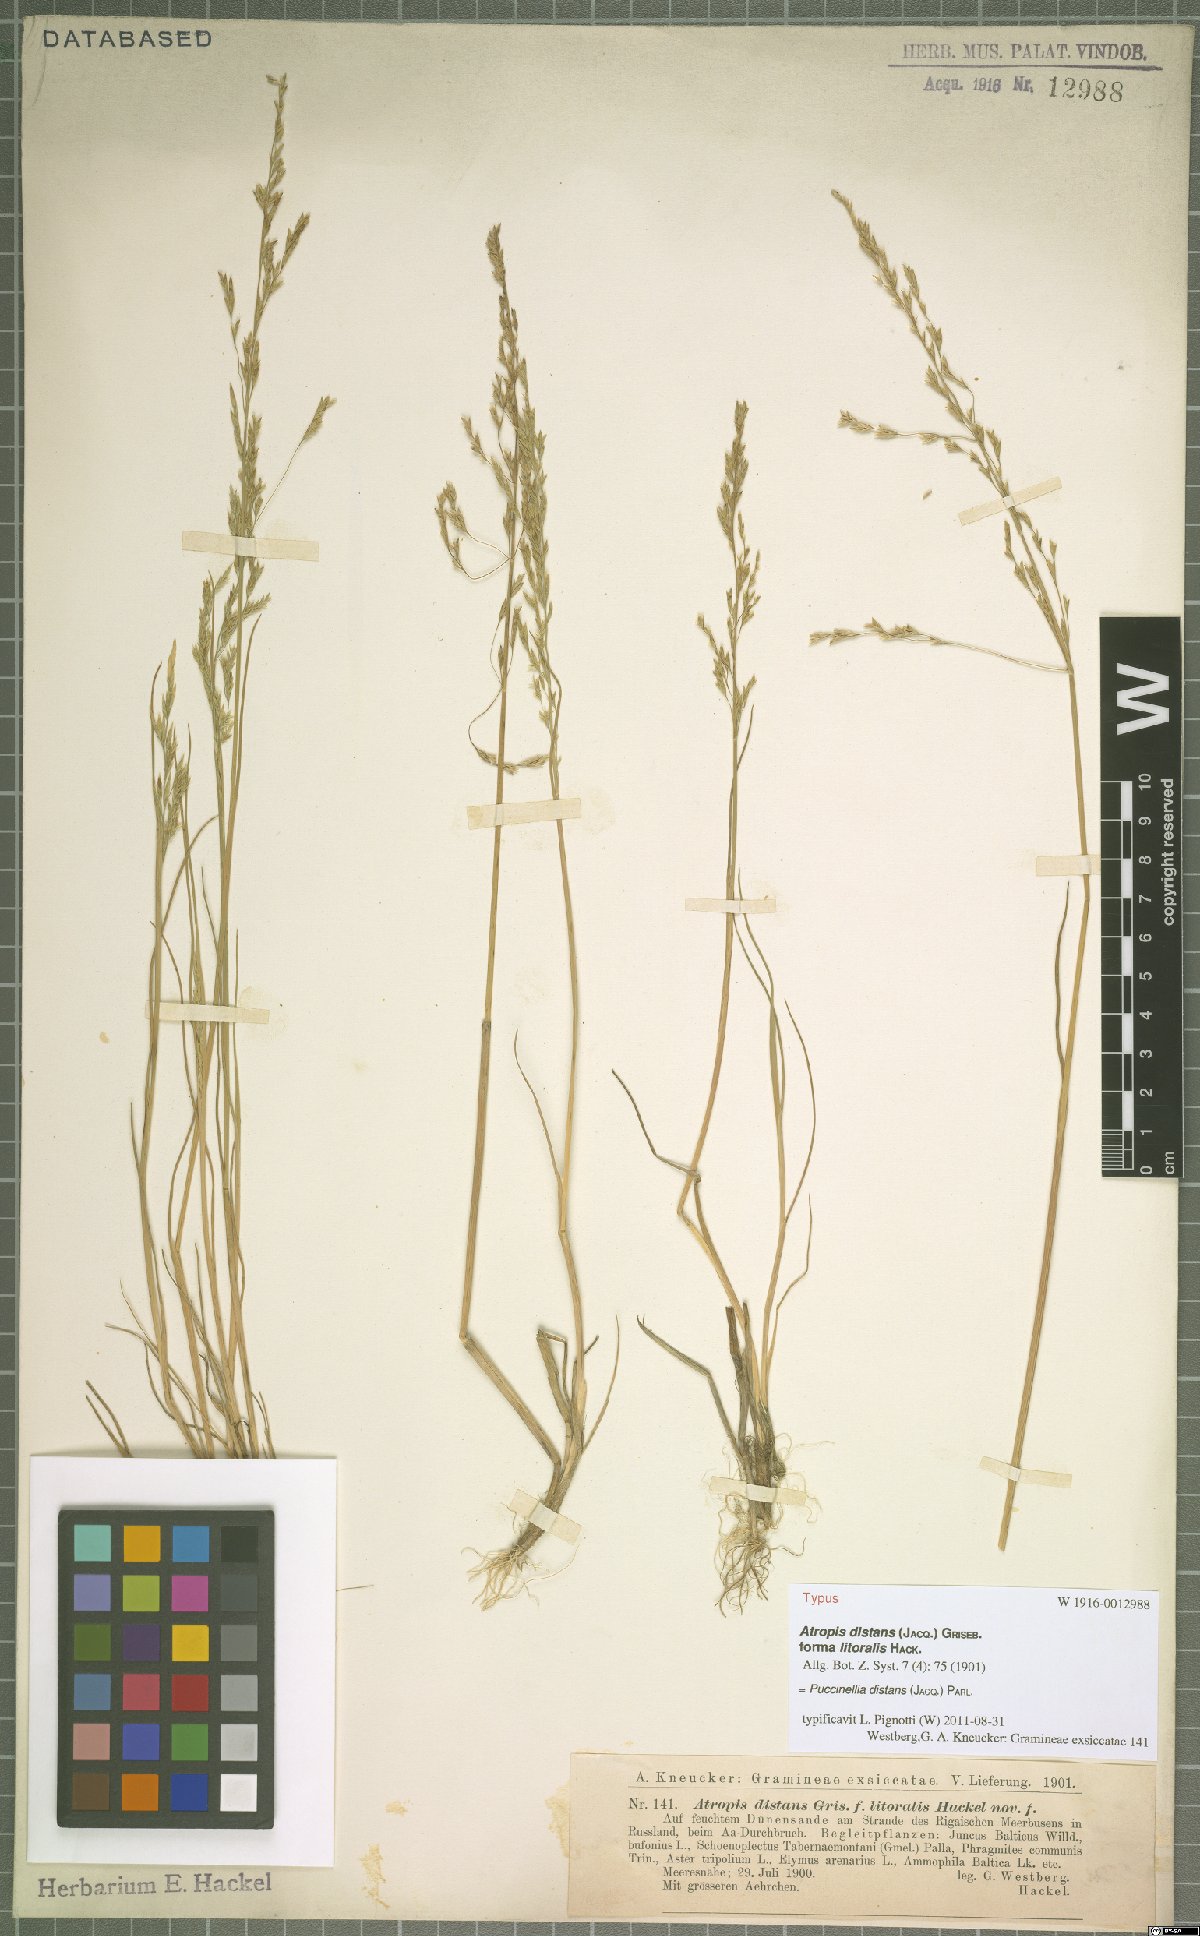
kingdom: Plantae
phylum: Tracheophyta
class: Liliopsida
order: Poales
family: Poaceae
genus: Puccinellia
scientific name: Puccinellia distans
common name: Weeping alkaligrass
